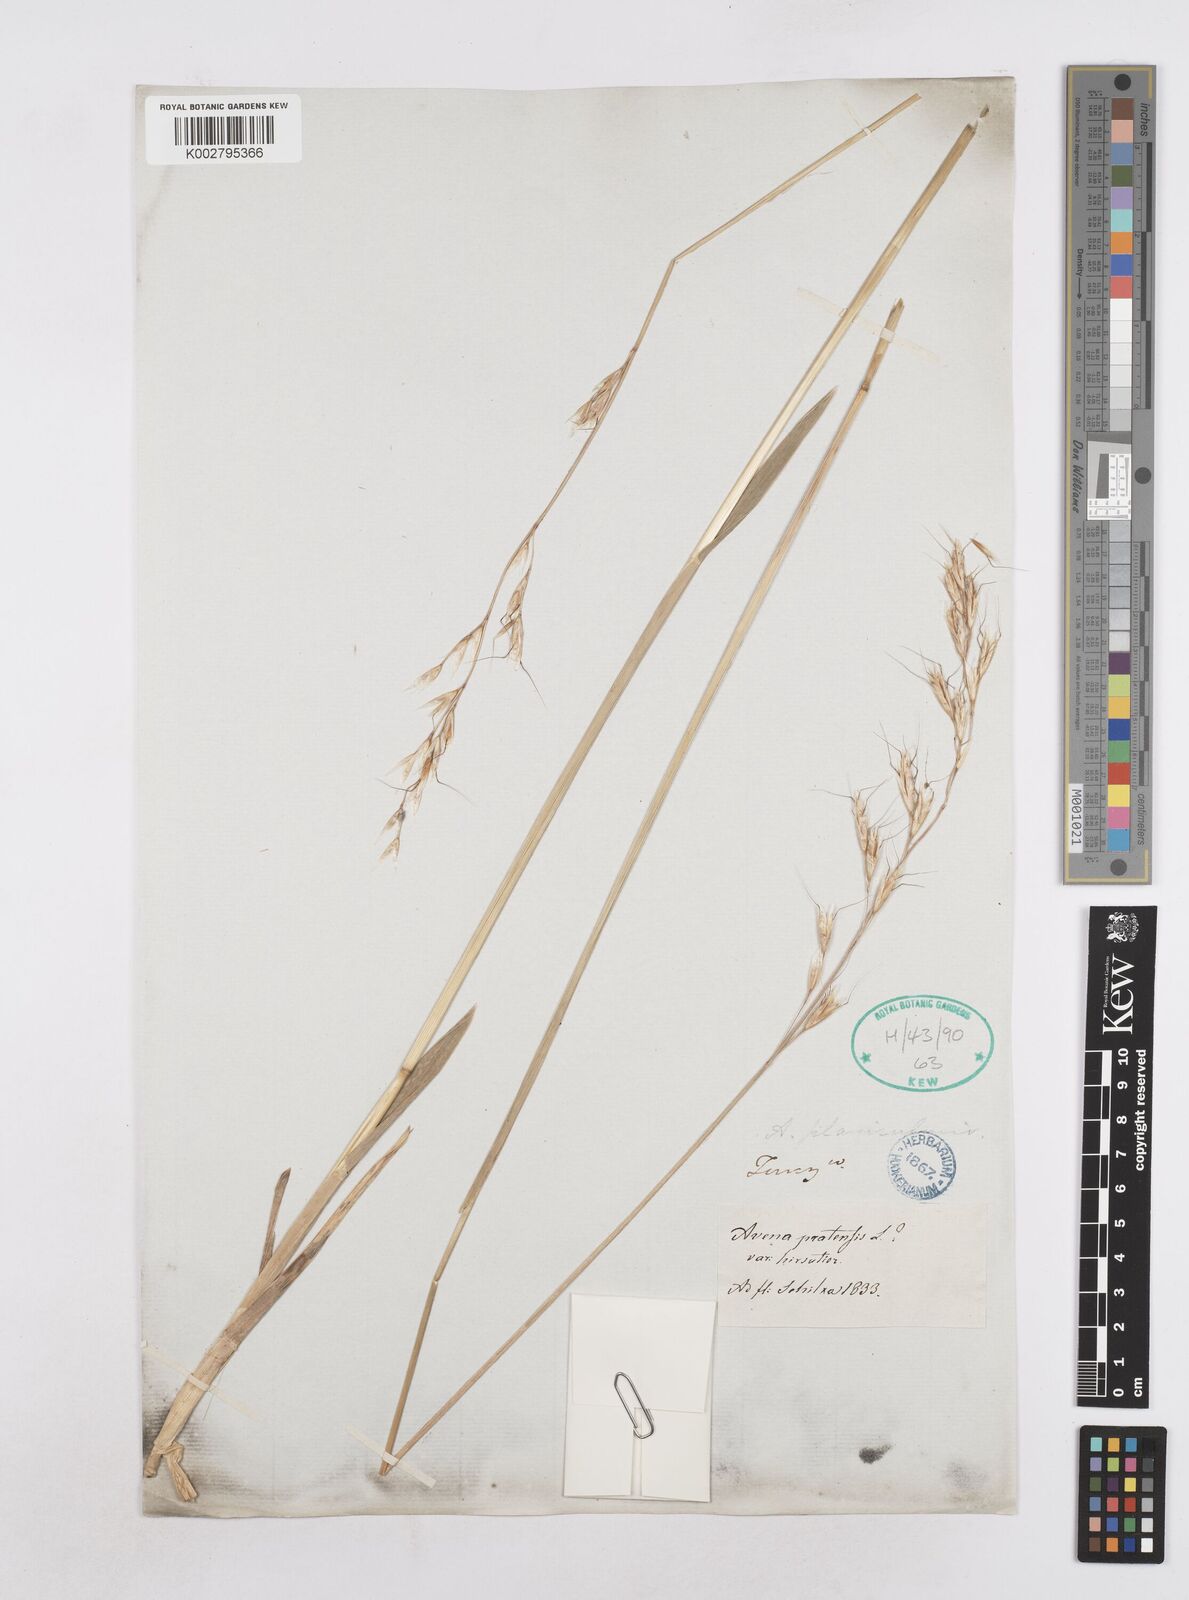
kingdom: Plantae
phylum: Tracheophyta
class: Liliopsida
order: Poales
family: Poaceae
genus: Helictotrichon
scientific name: Helictotrichon
